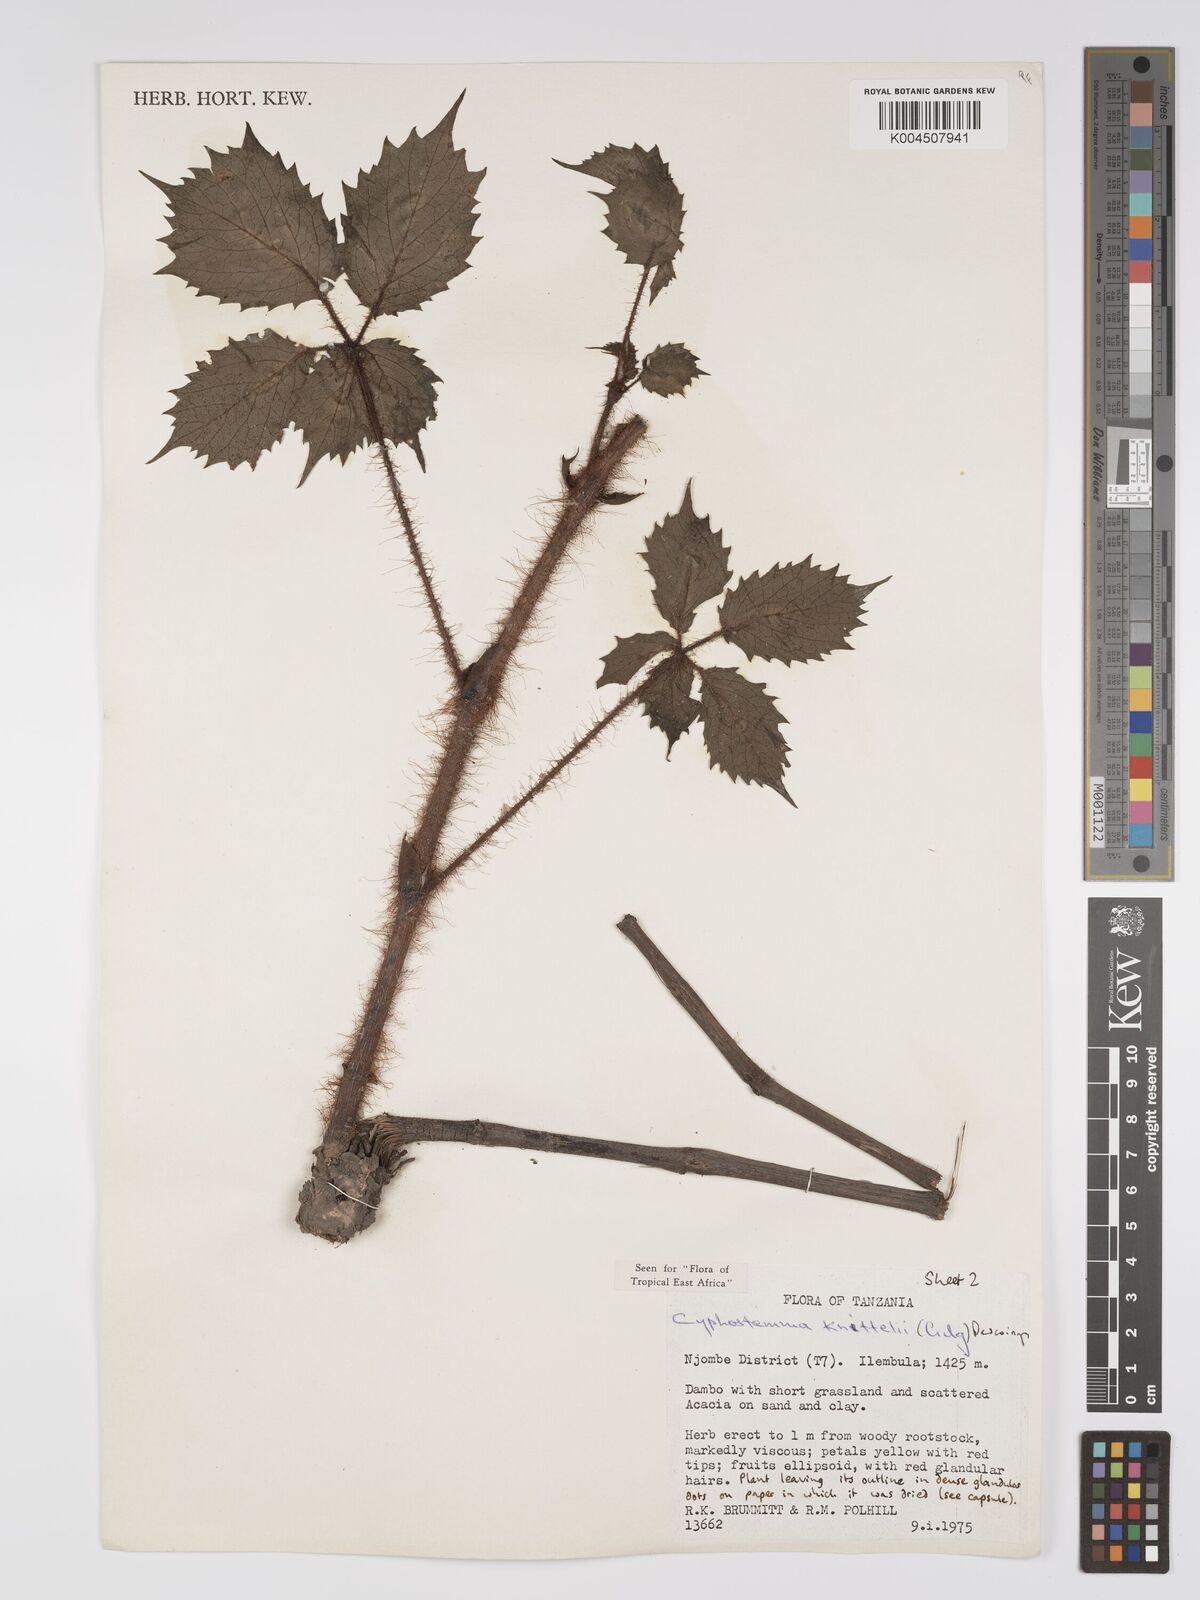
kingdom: Plantae
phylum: Tracheophyta
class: Magnoliopsida
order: Vitales
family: Vitaceae
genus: Cyphostemma
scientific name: Cyphostemma knittelii
